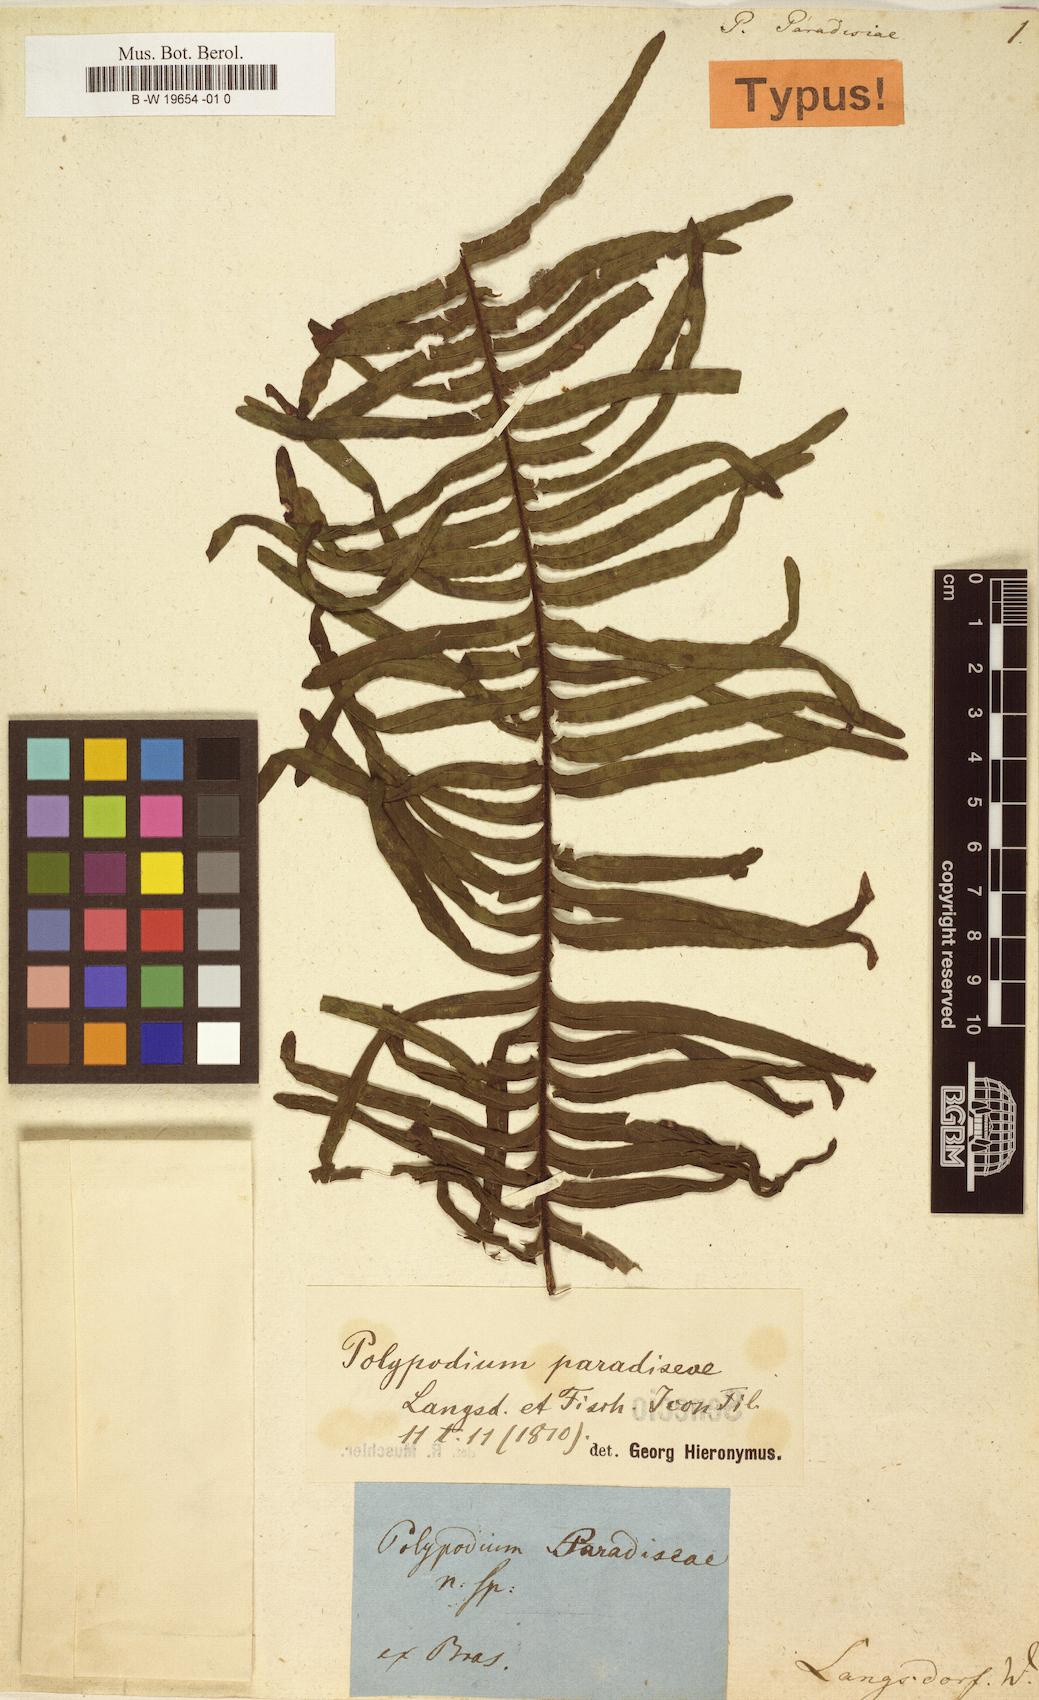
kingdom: Plantae
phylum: Tracheophyta
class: Polypodiopsida
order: Polypodiales
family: Polypodiaceae
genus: Pecluma
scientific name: Pecluma paradiseae
